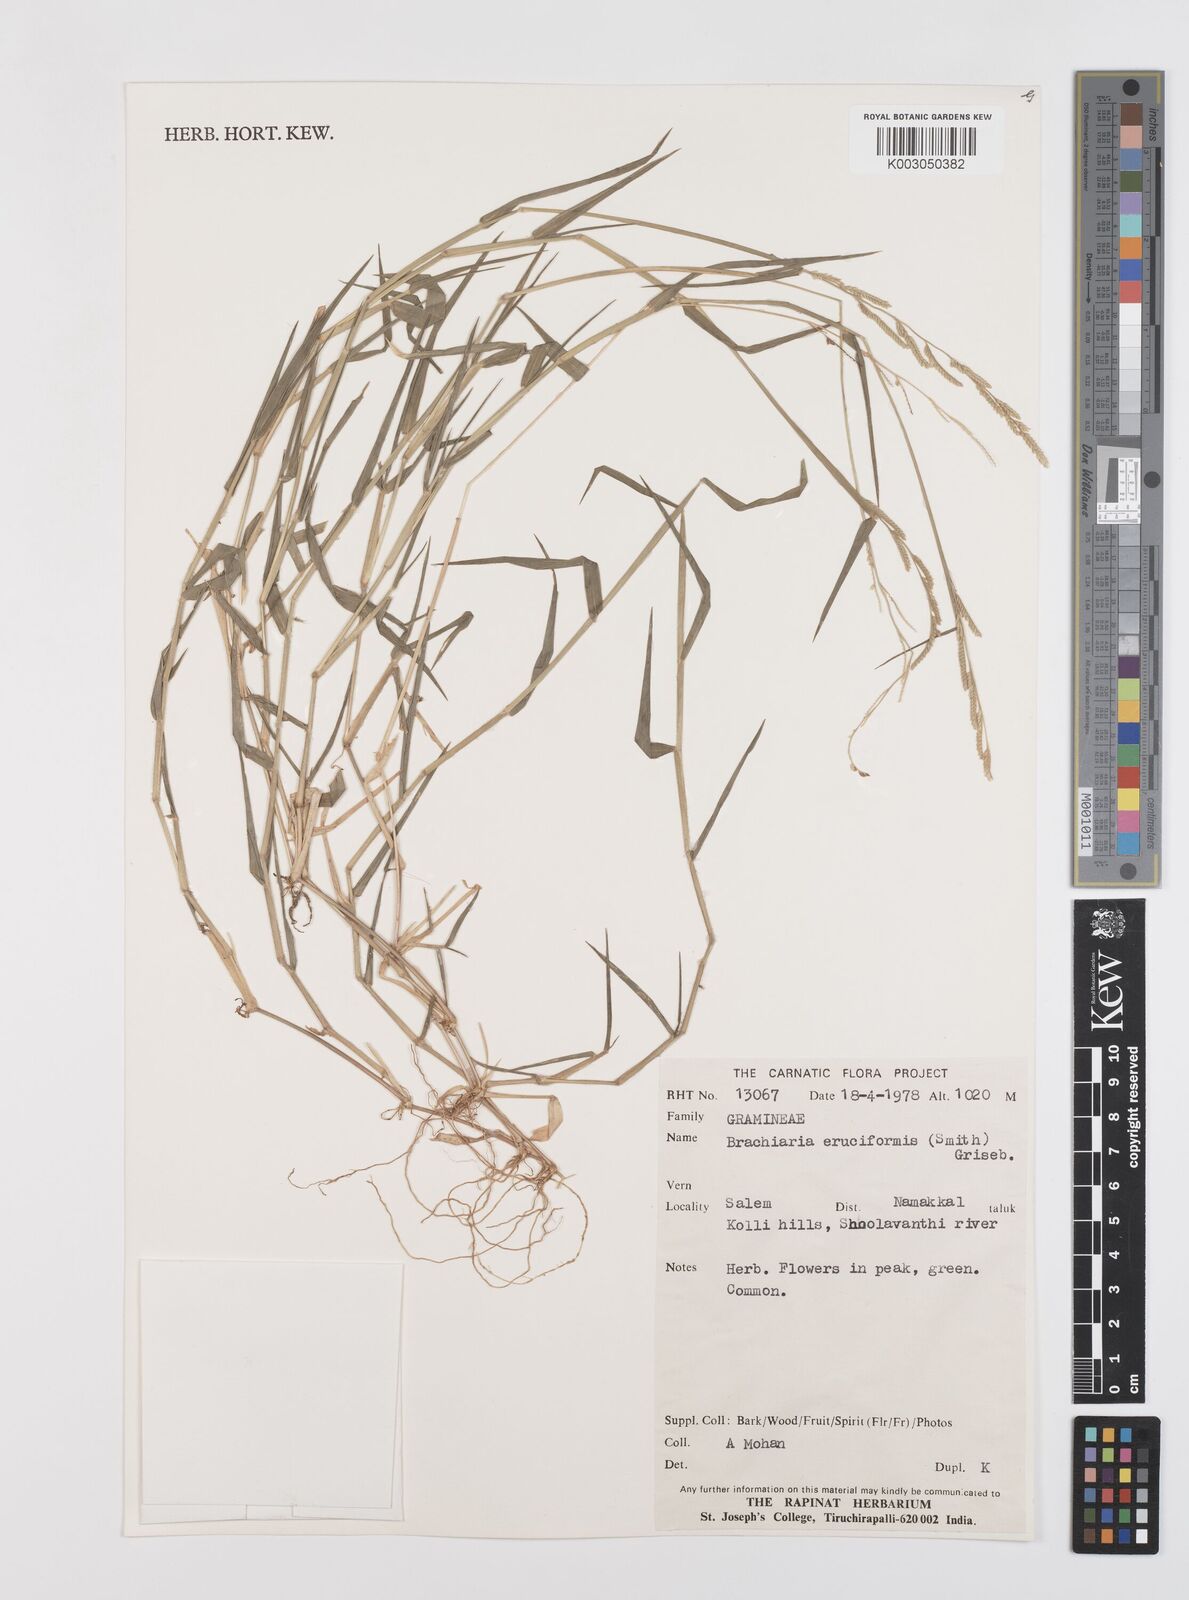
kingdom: Plantae
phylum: Tracheophyta
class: Liliopsida
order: Poales
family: Poaceae
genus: Moorochloa
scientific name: Moorochloa eruciformis
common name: Sweet signalgrass
